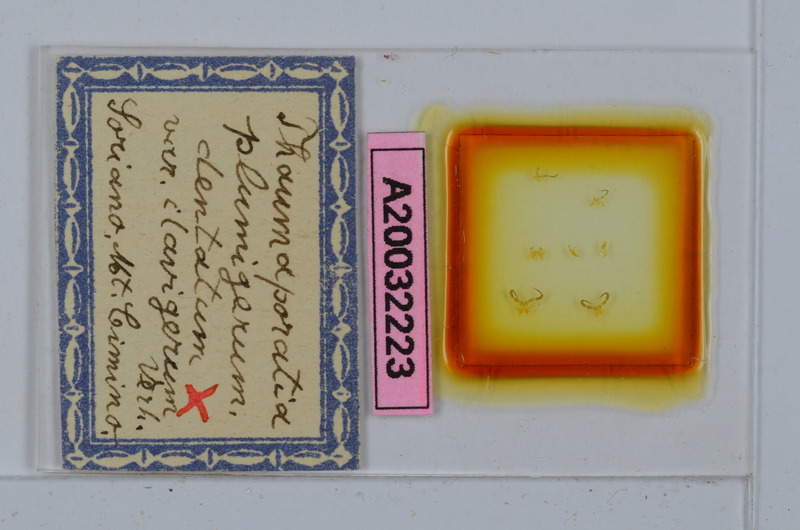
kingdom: Animalia
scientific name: Animalia
